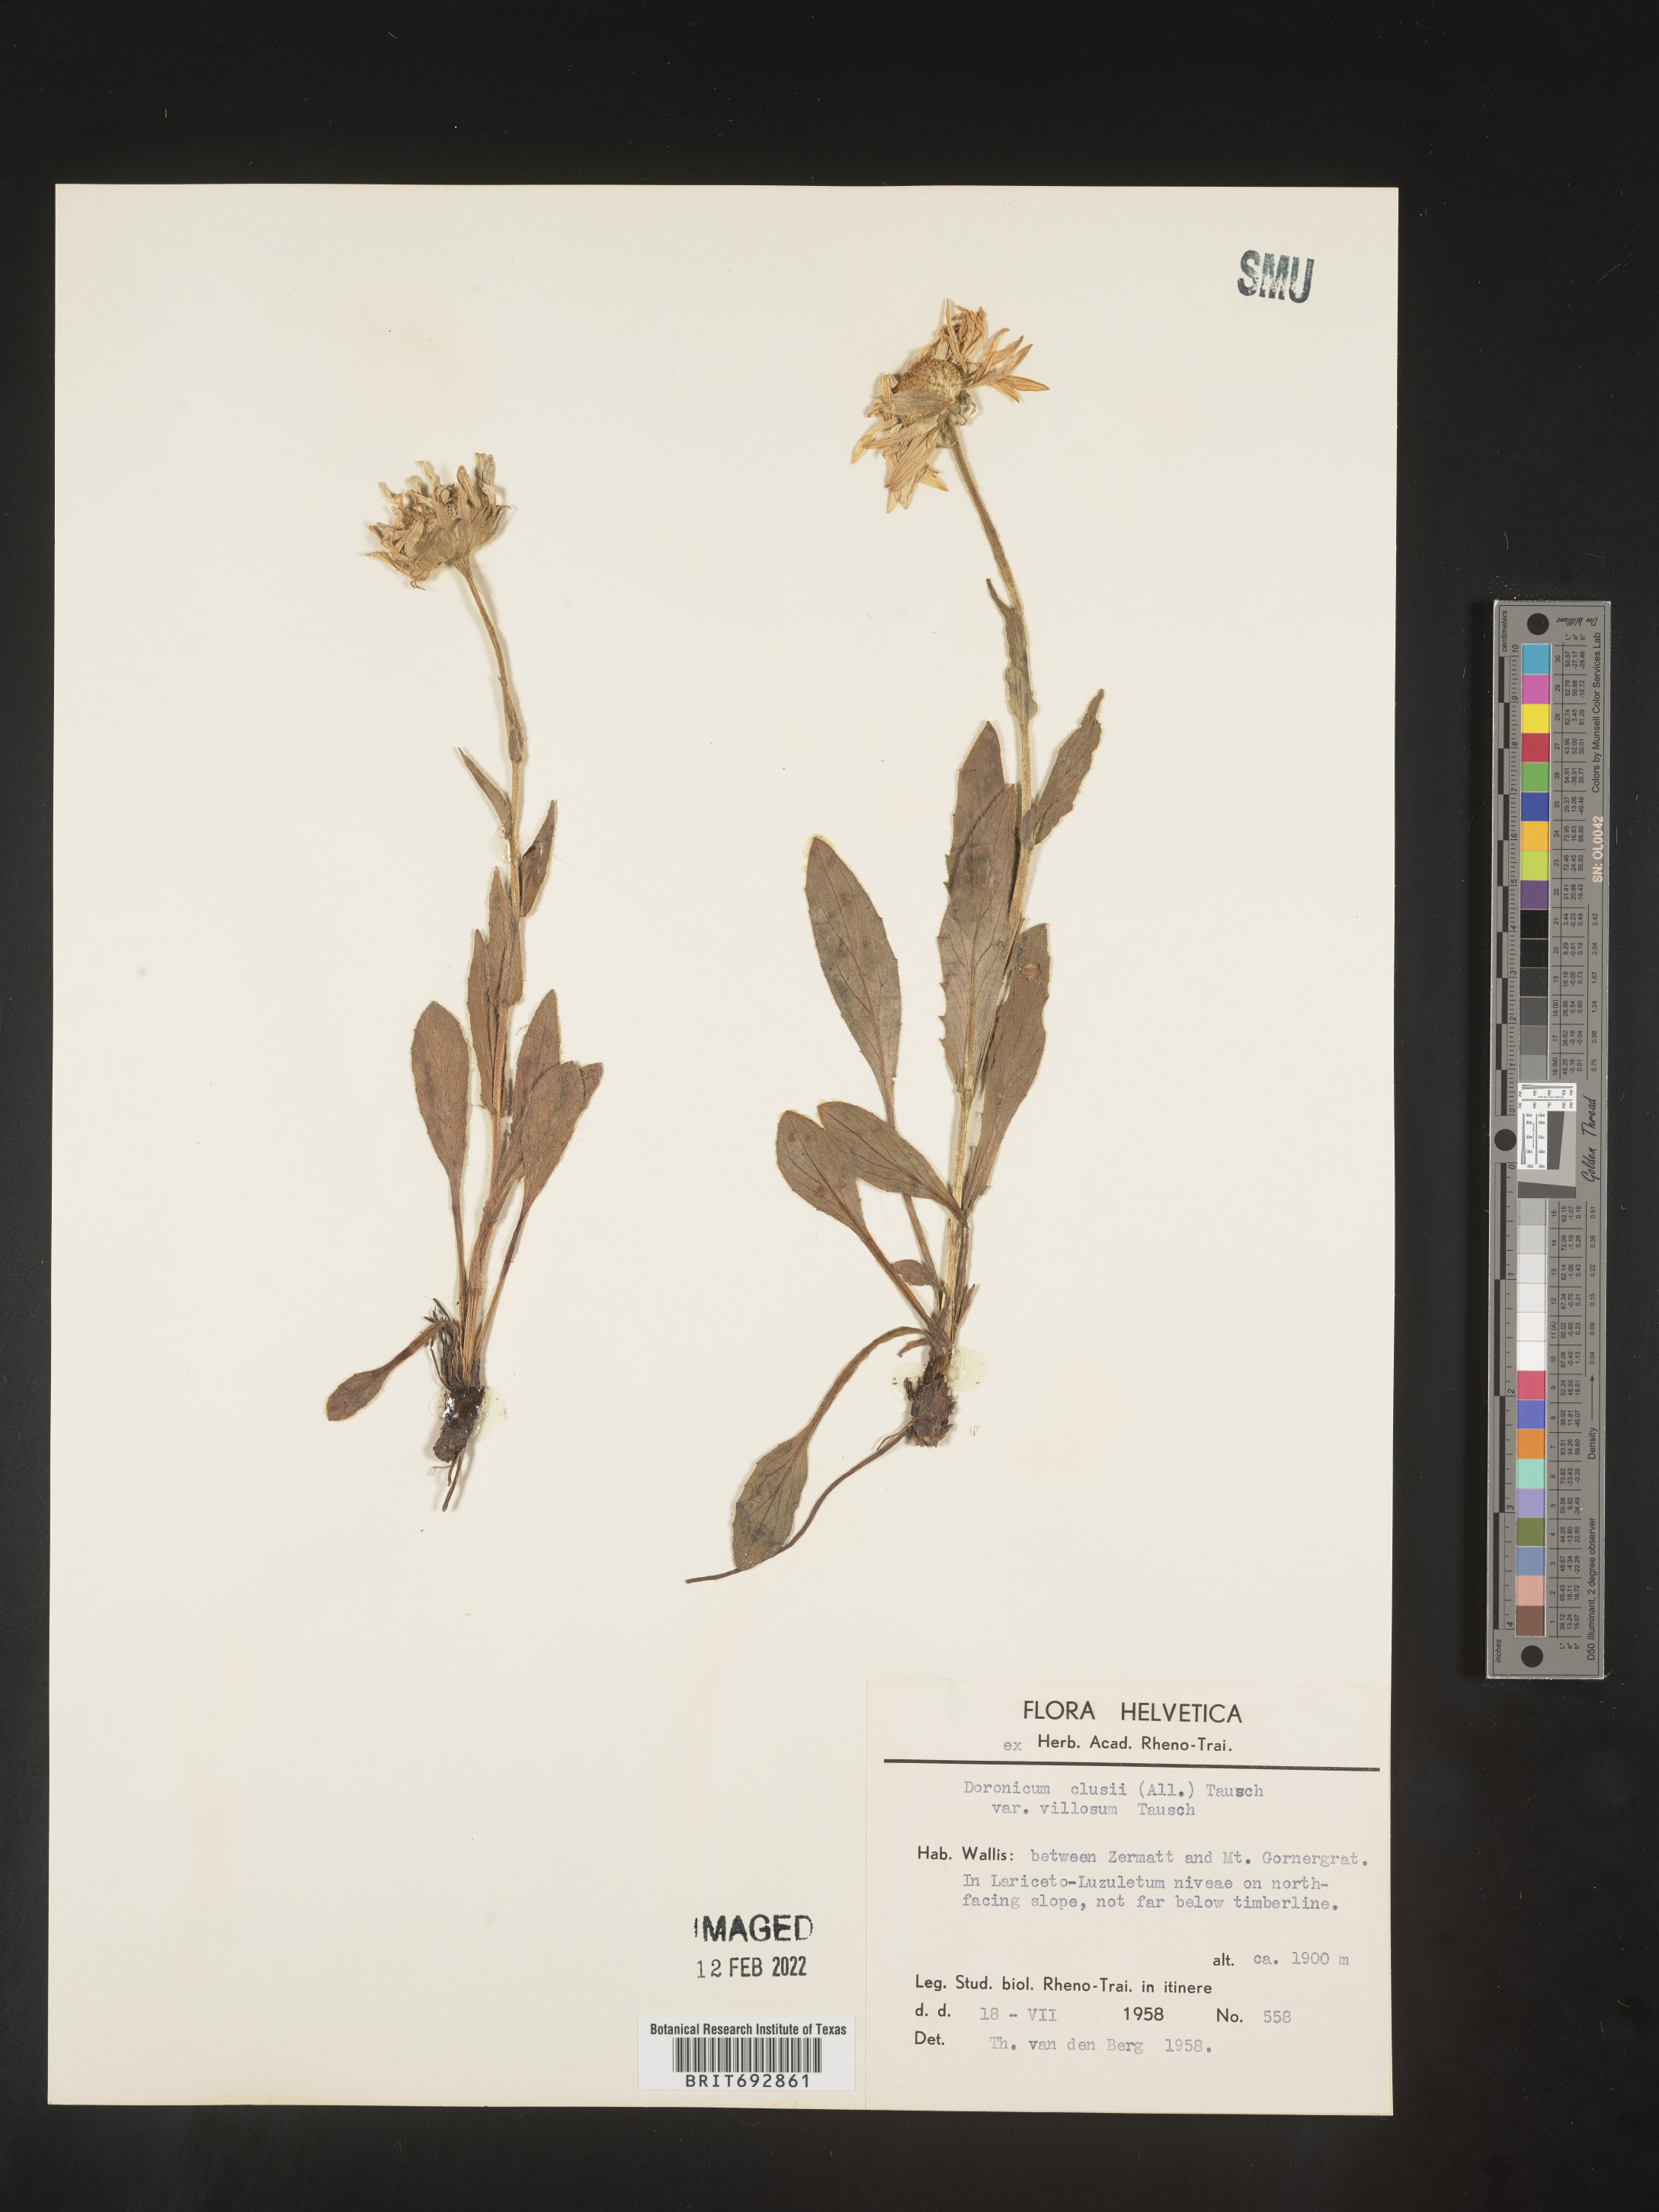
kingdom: Plantae
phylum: Tracheophyta
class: Magnoliopsida
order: Asterales
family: Asteraceae
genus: Doronicum
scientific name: Doronicum
